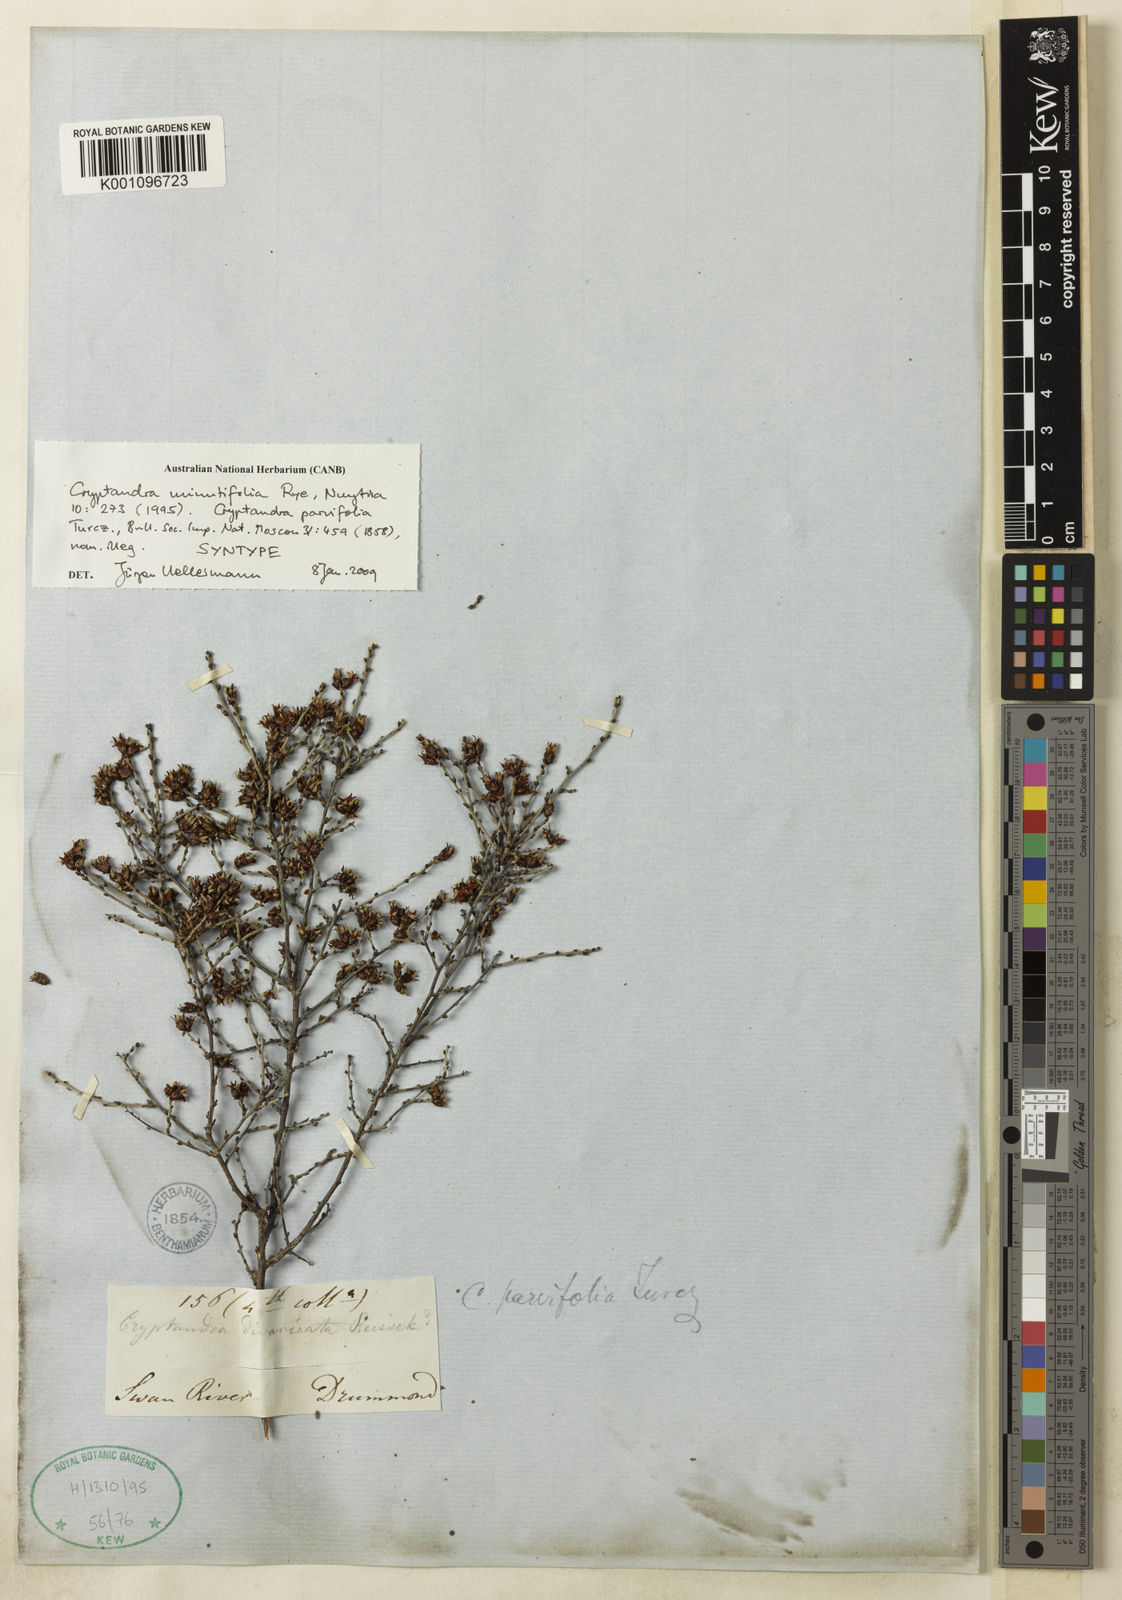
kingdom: Plantae
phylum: Tracheophyta
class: Magnoliopsida
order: Rosales
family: Rhamnaceae
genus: Cryptandra
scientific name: Cryptandra minutifolia
